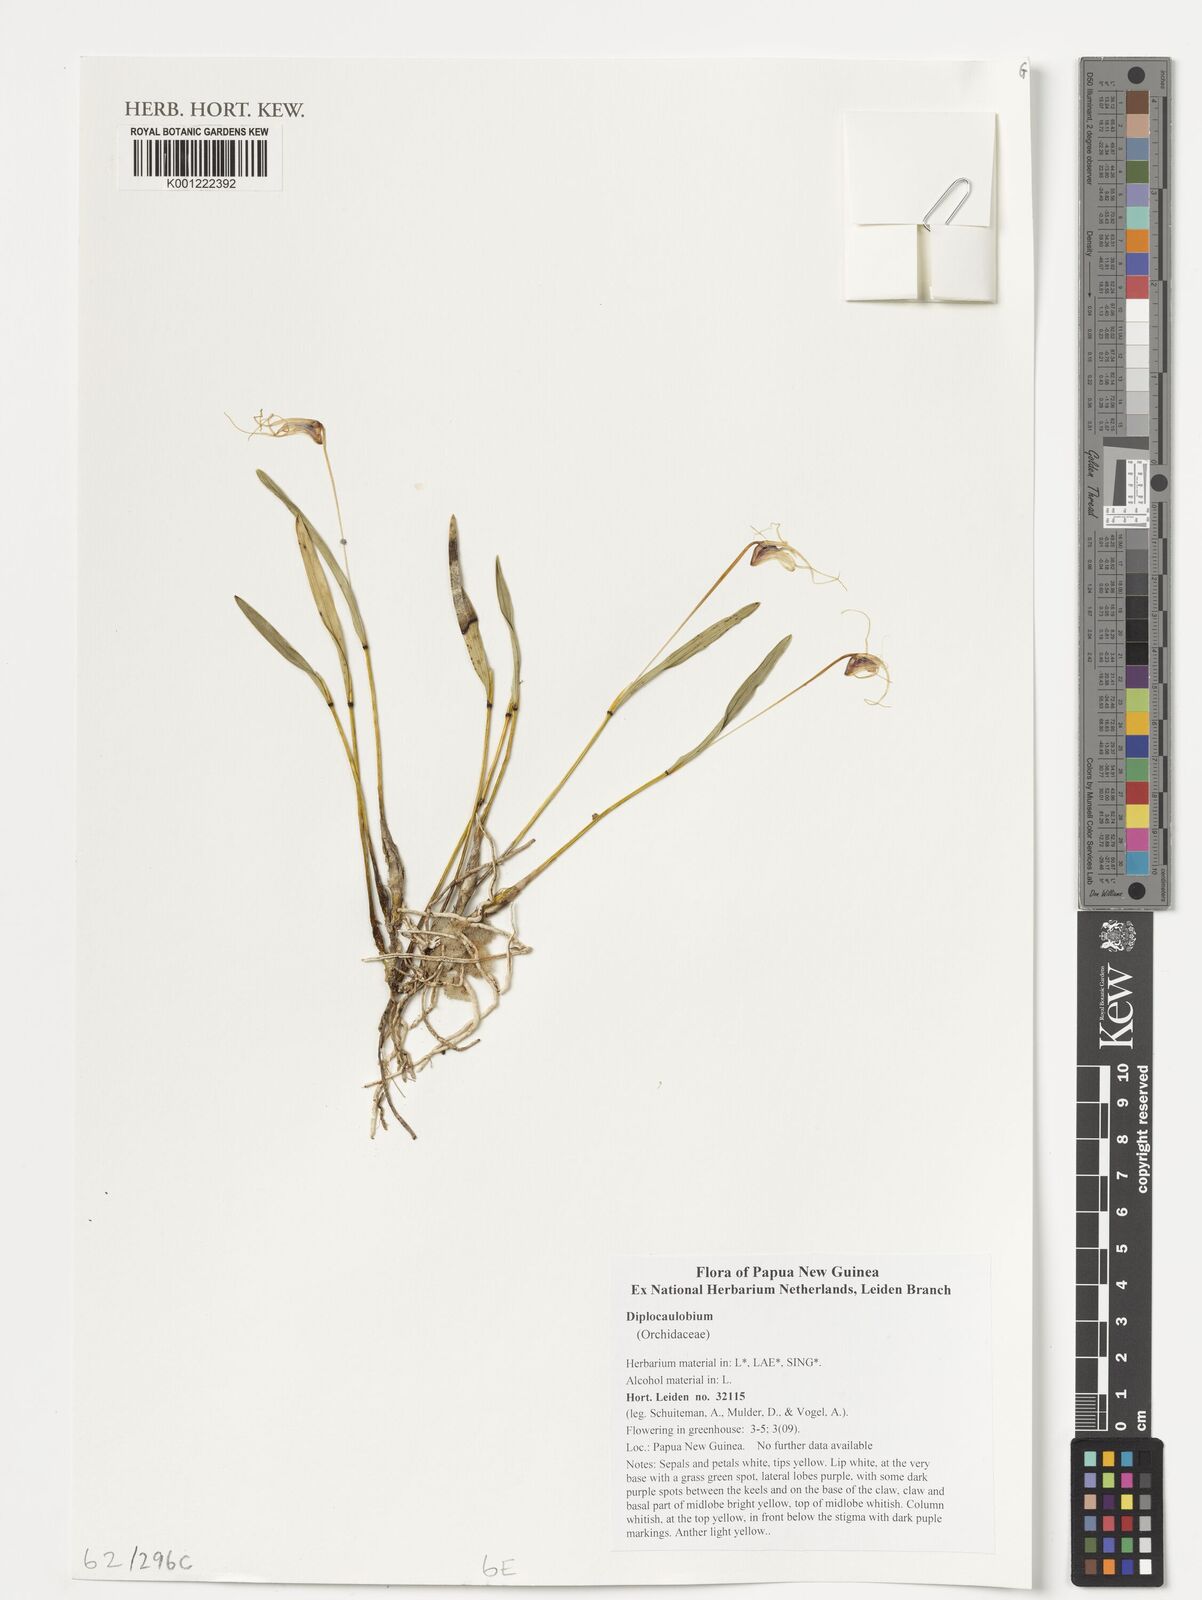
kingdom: Plantae
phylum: Tracheophyta
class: Liliopsida
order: Asparagales
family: Orchidaceae
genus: Dendrobium
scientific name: Dendrobium
